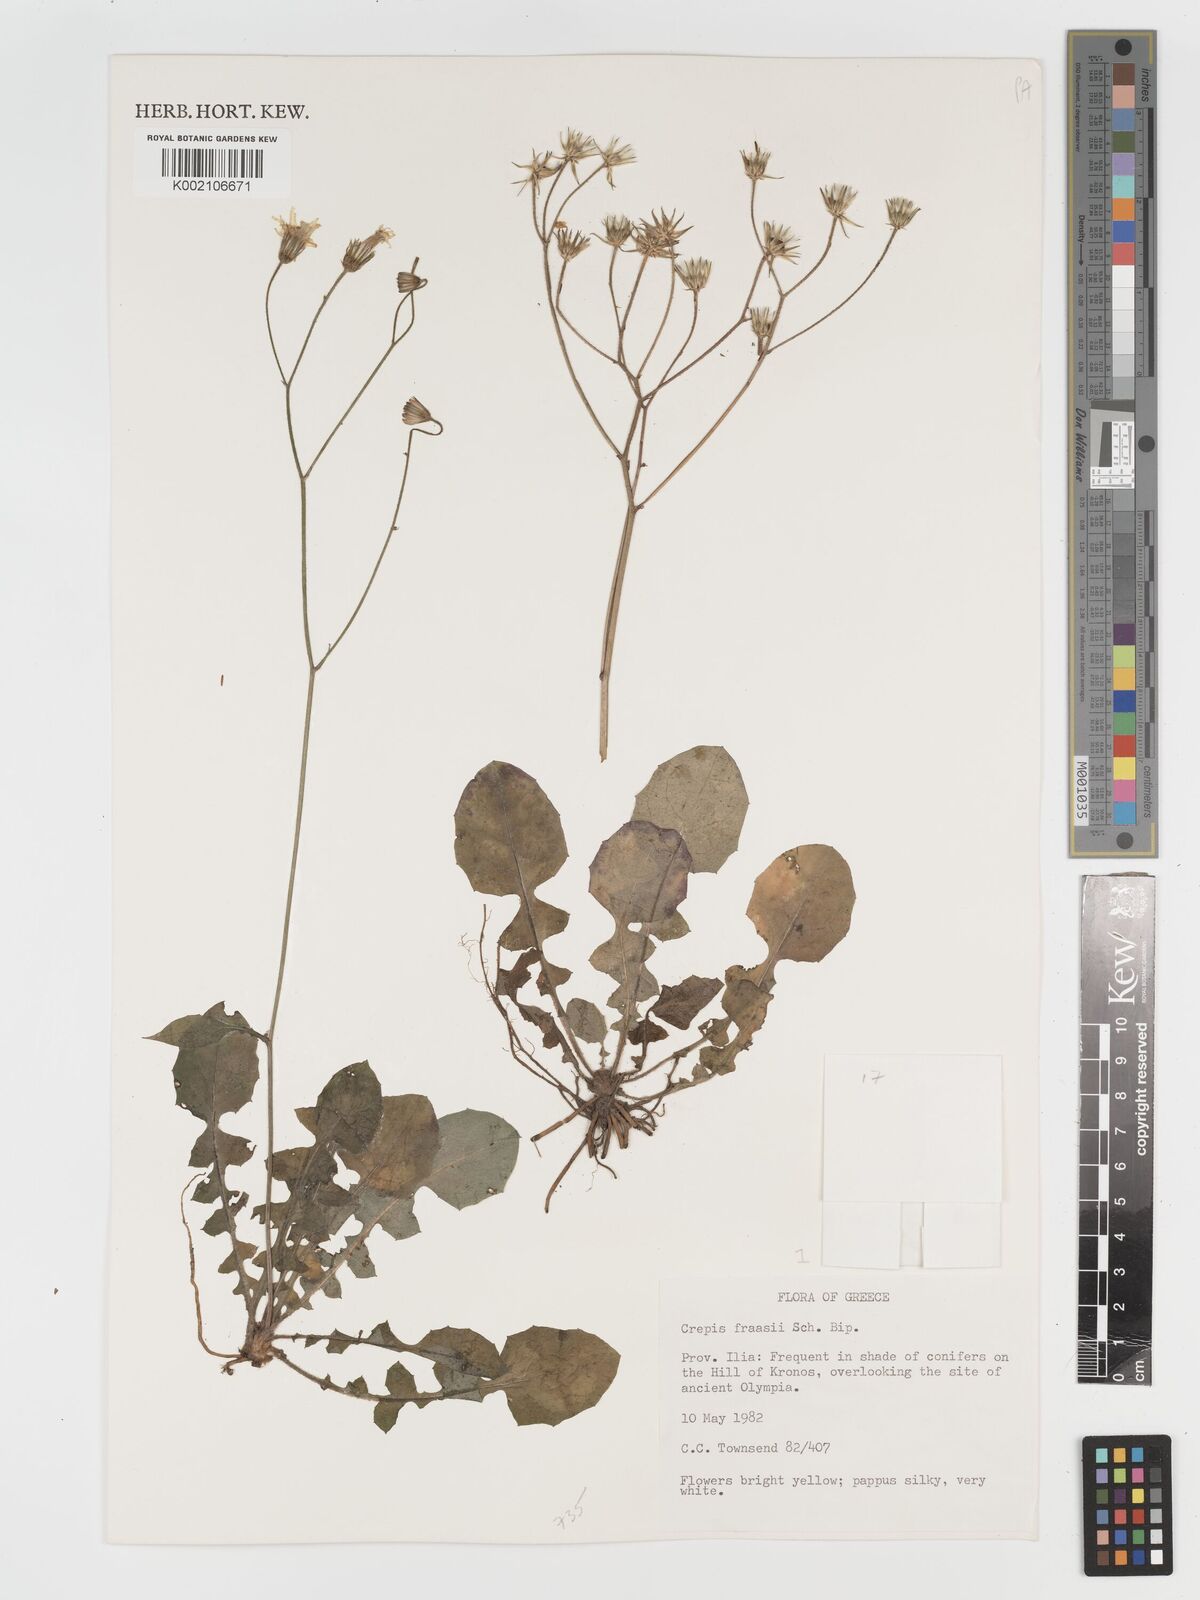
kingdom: Plantae
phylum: Tracheophyta
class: Magnoliopsida
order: Asterales
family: Asteraceae
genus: Crepis
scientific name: Crepis
